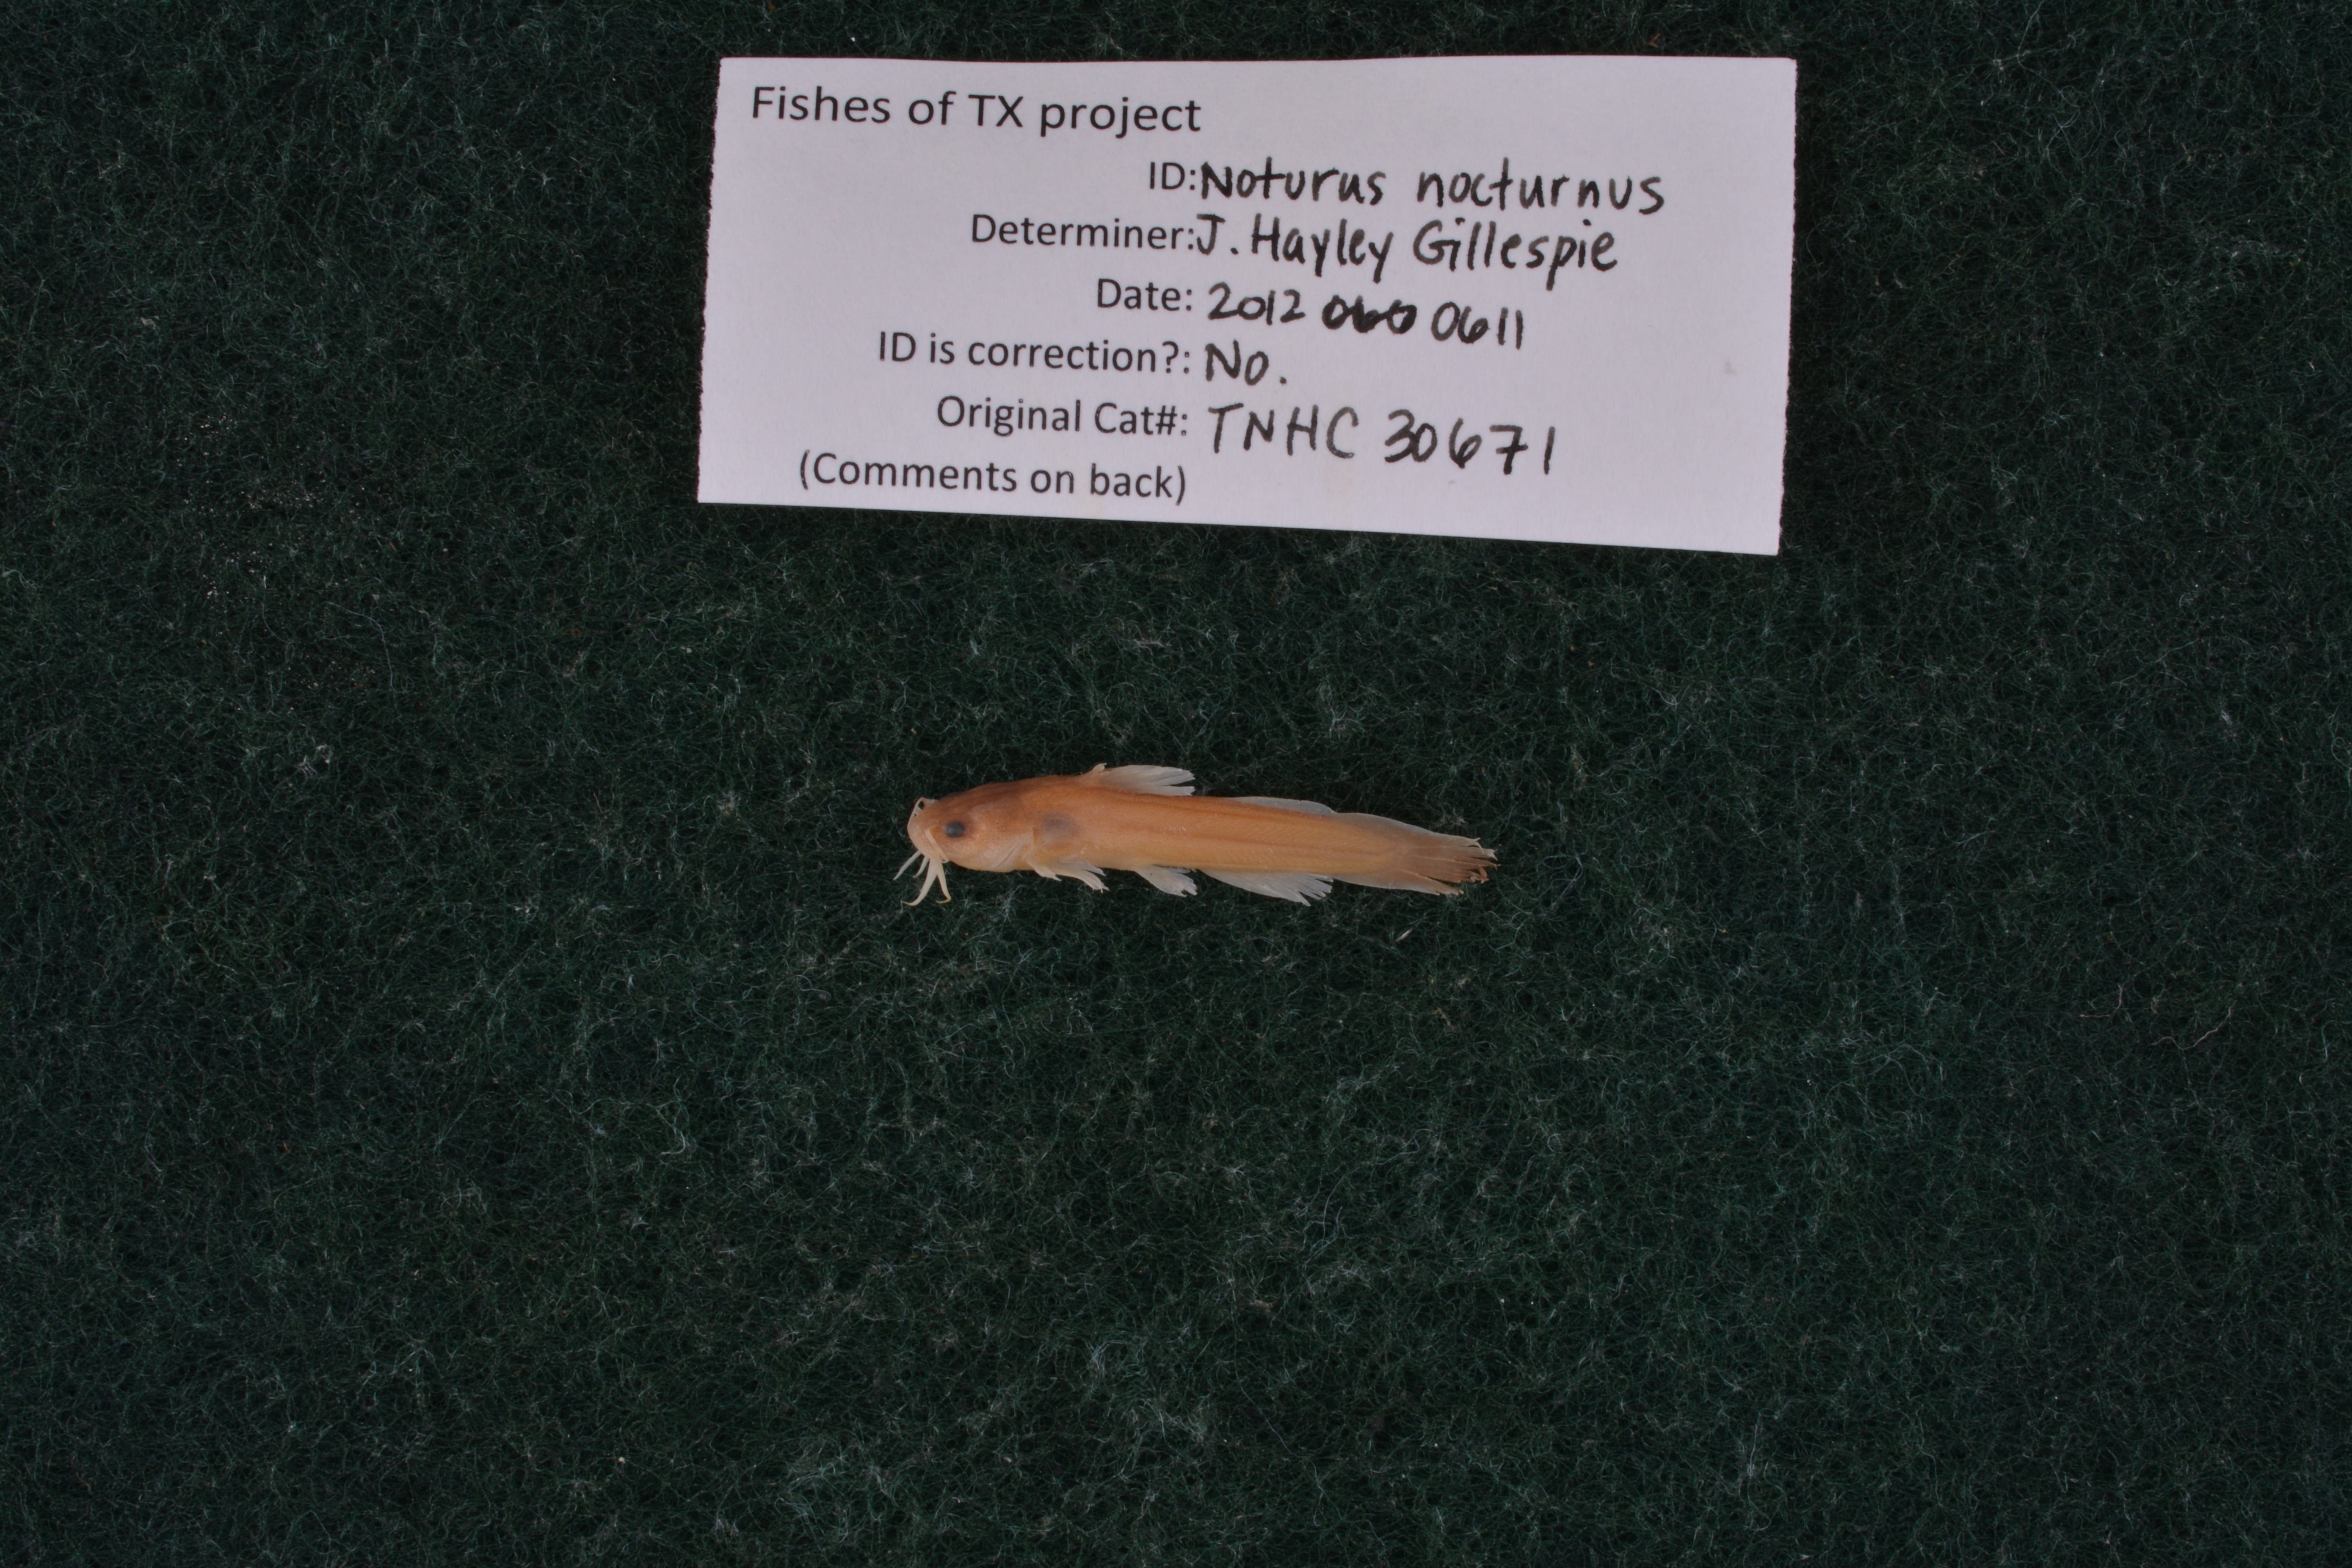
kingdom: Animalia
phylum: Chordata
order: Siluriformes
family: Ictaluridae
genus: Noturus
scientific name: Noturus nocturnus
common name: Freckled madtom
